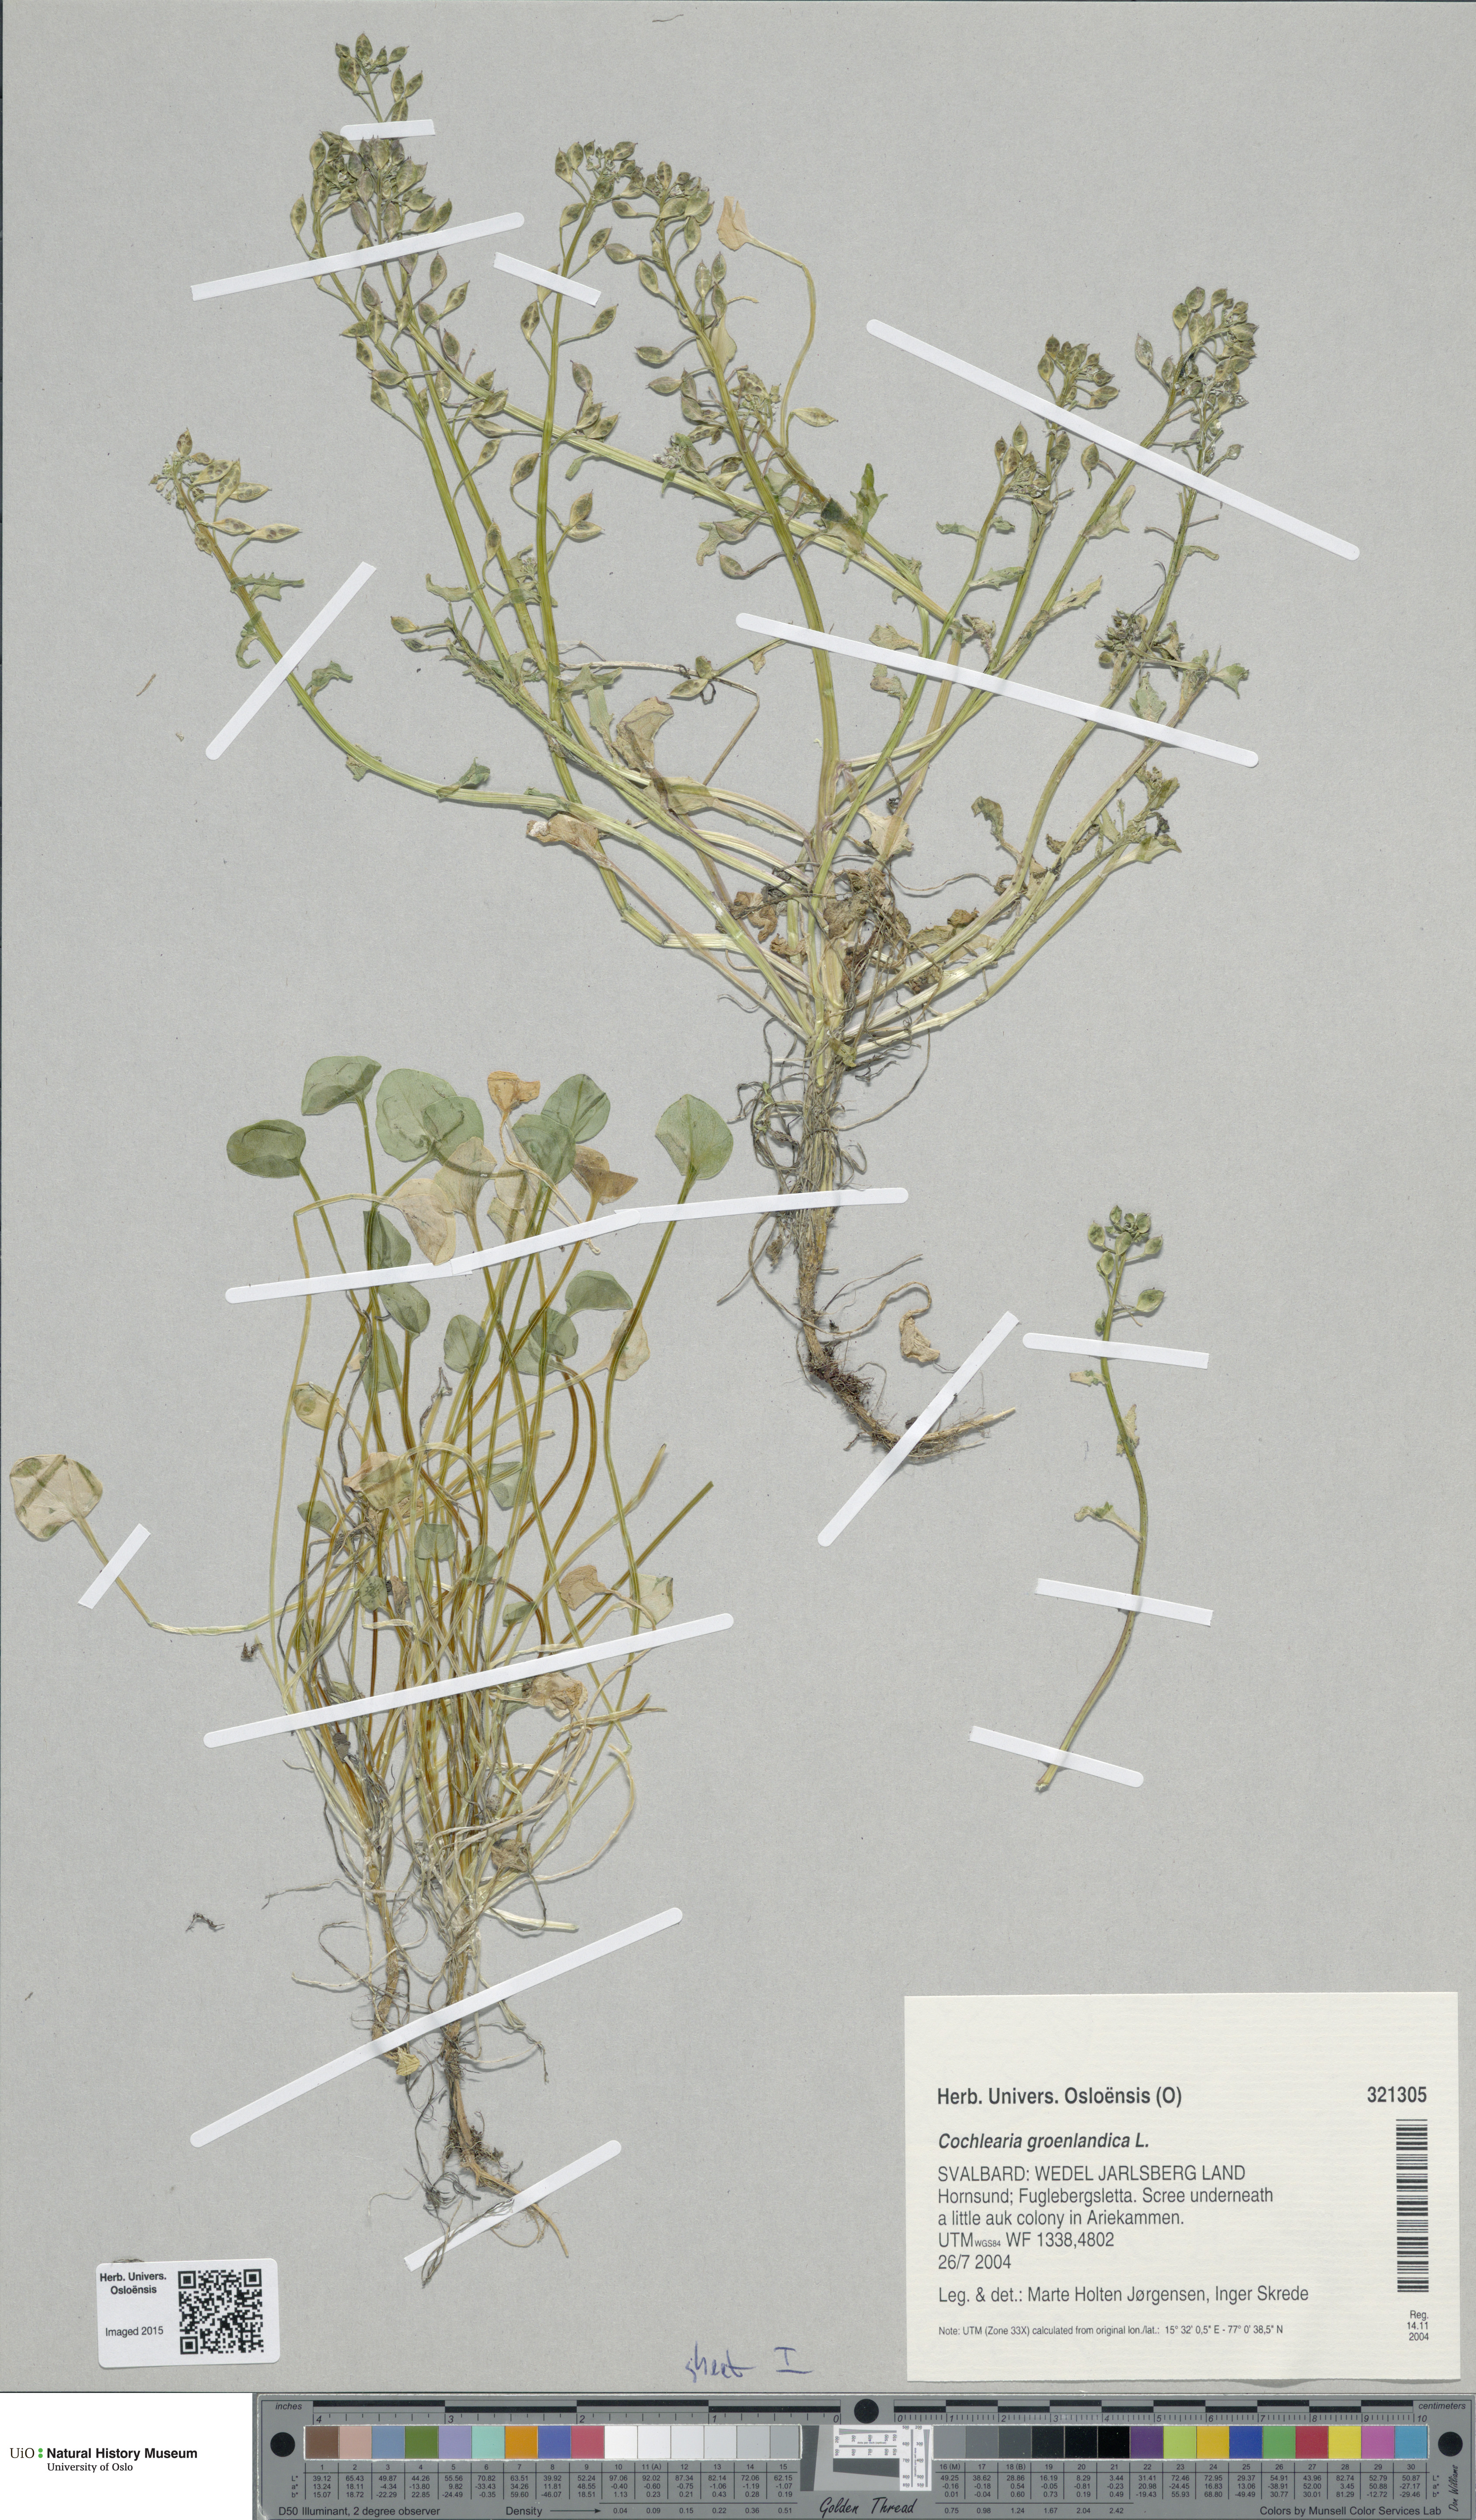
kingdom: Plantae
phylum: Tracheophyta
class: Magnoliopsida
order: Brassicales
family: Brassicaceae
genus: Cochlearia
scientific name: Cochlearia groenlandica
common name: Danish scurvygrass
